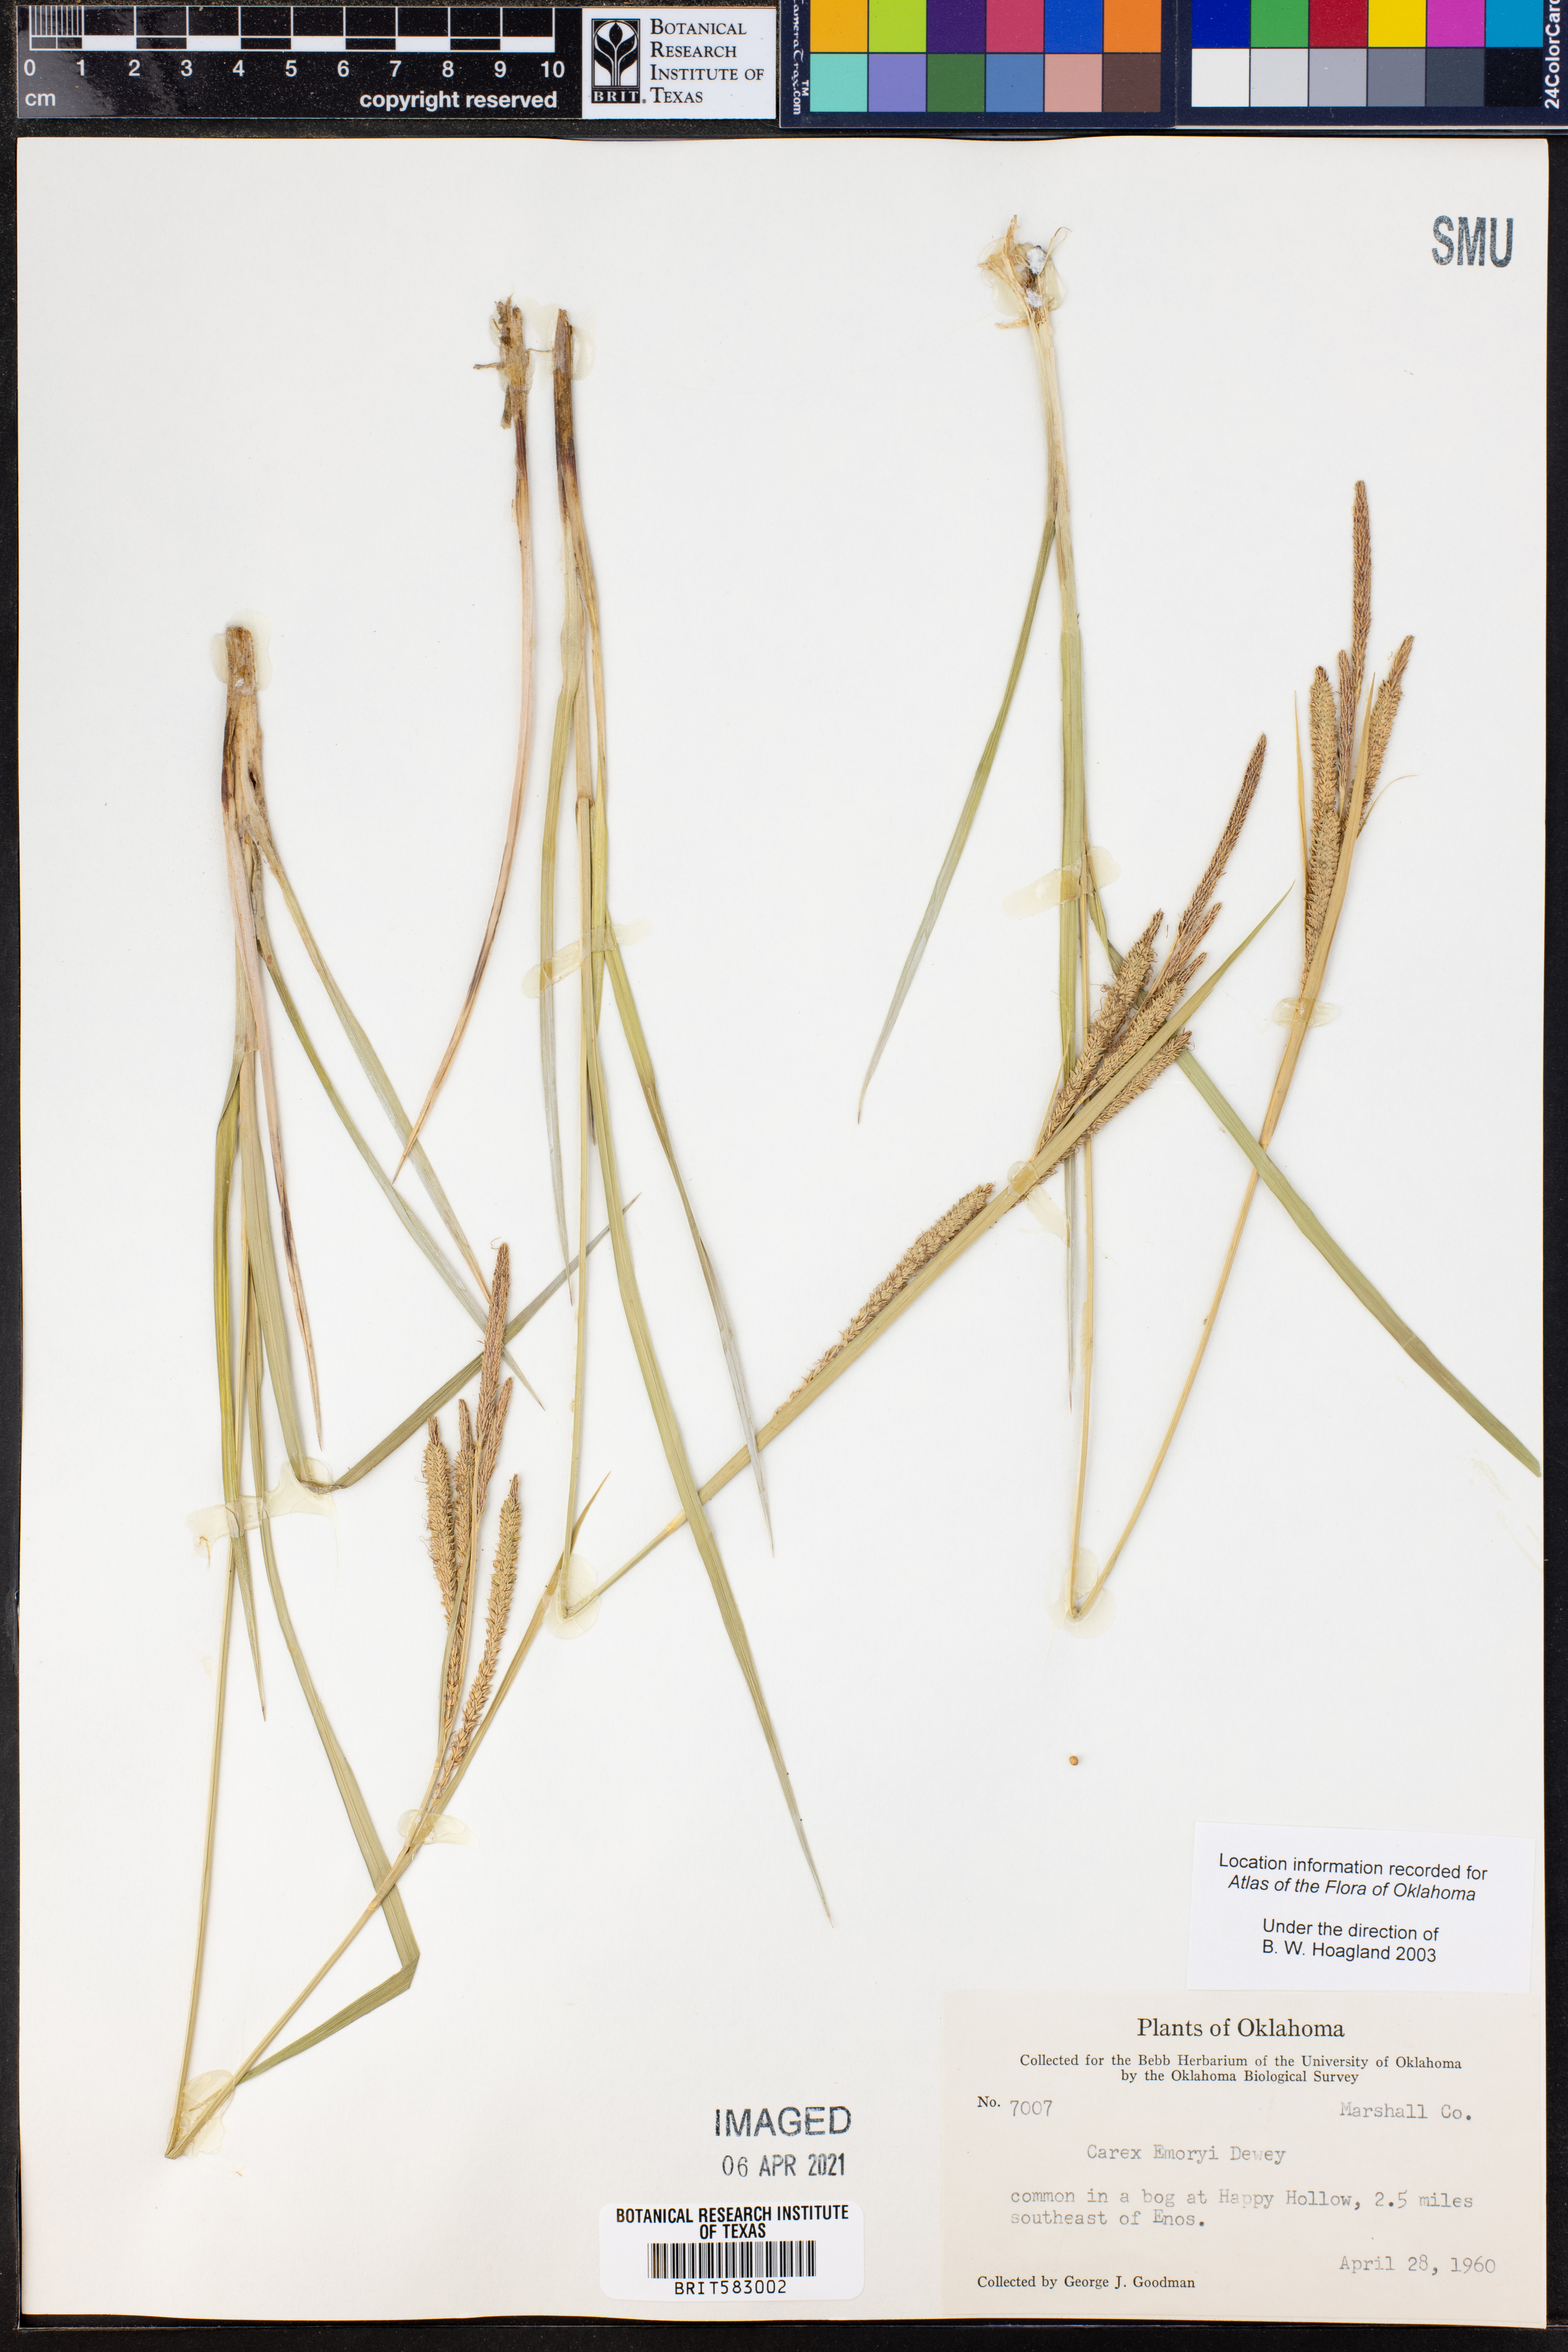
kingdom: Plantae
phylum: Tracheophyta
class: Liliopsida
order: Poales
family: Cyperaceae
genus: Carex
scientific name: Carex emoryi
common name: Emory's sedge
